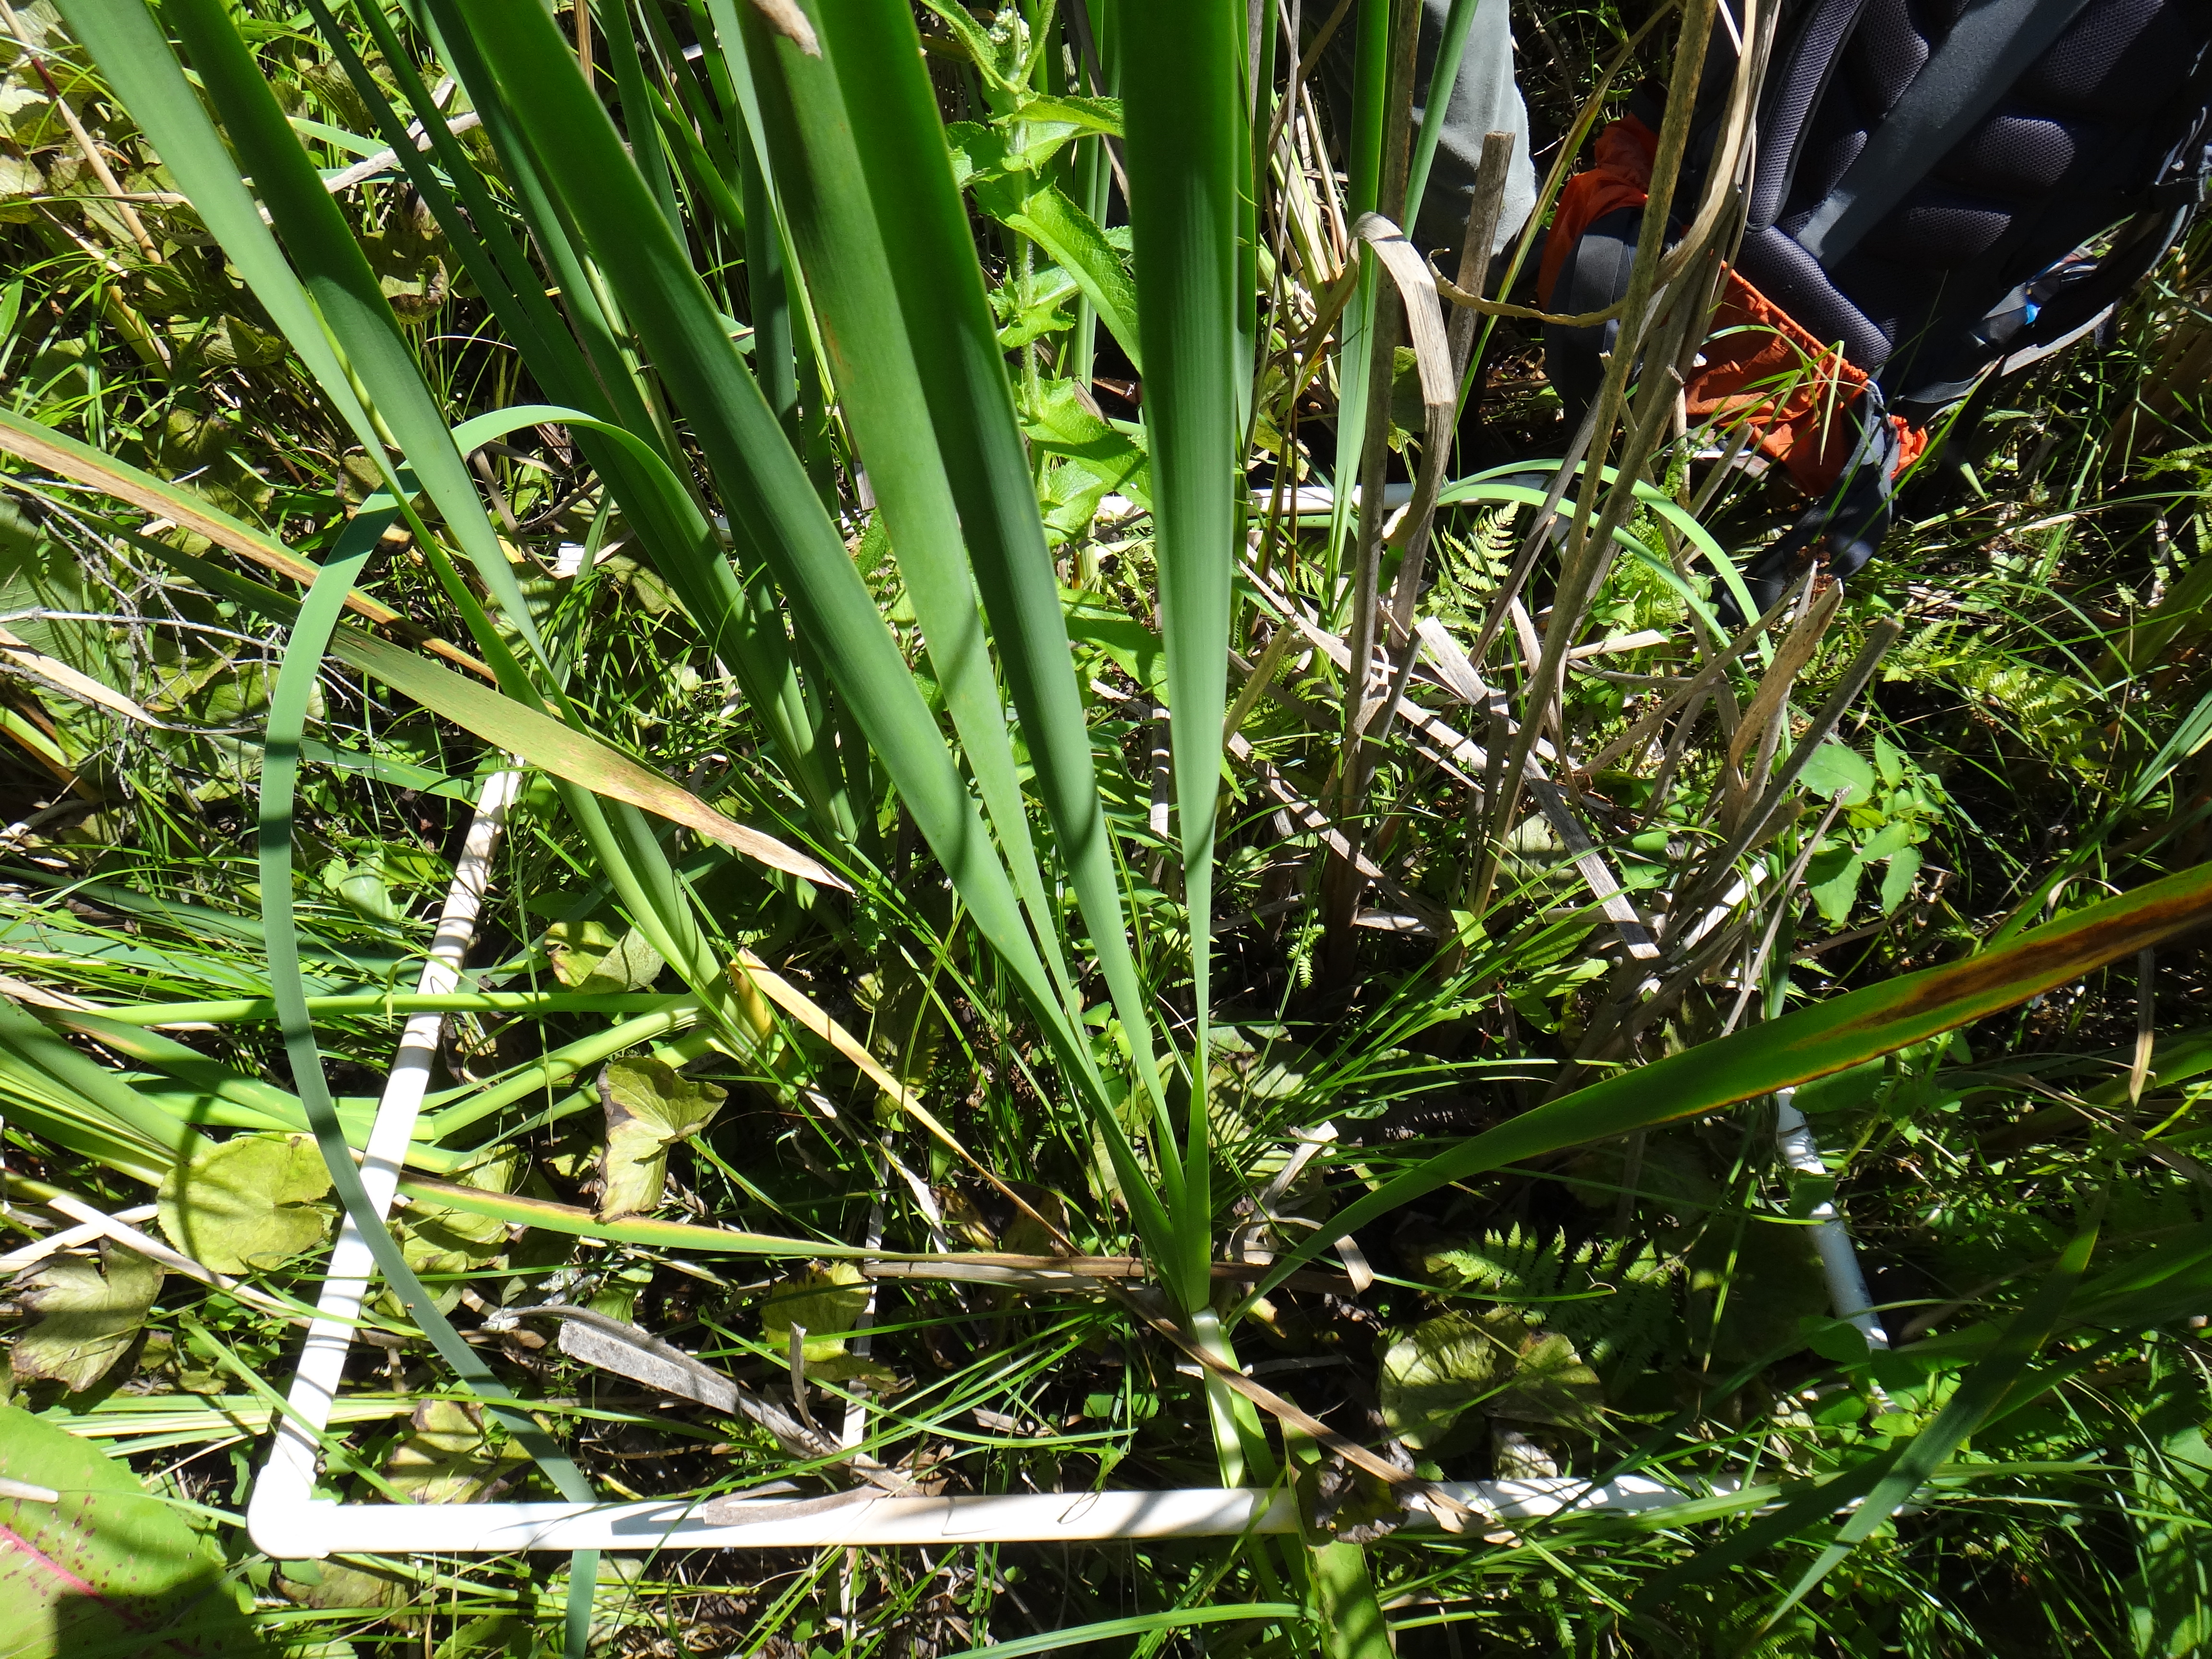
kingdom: Plantae
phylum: Tracheophyta
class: Magnoliopsida
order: Ericales
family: Primulaceae
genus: Lysimachia
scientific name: Lysimachia quadriflora
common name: Four-flowered loosestrife
